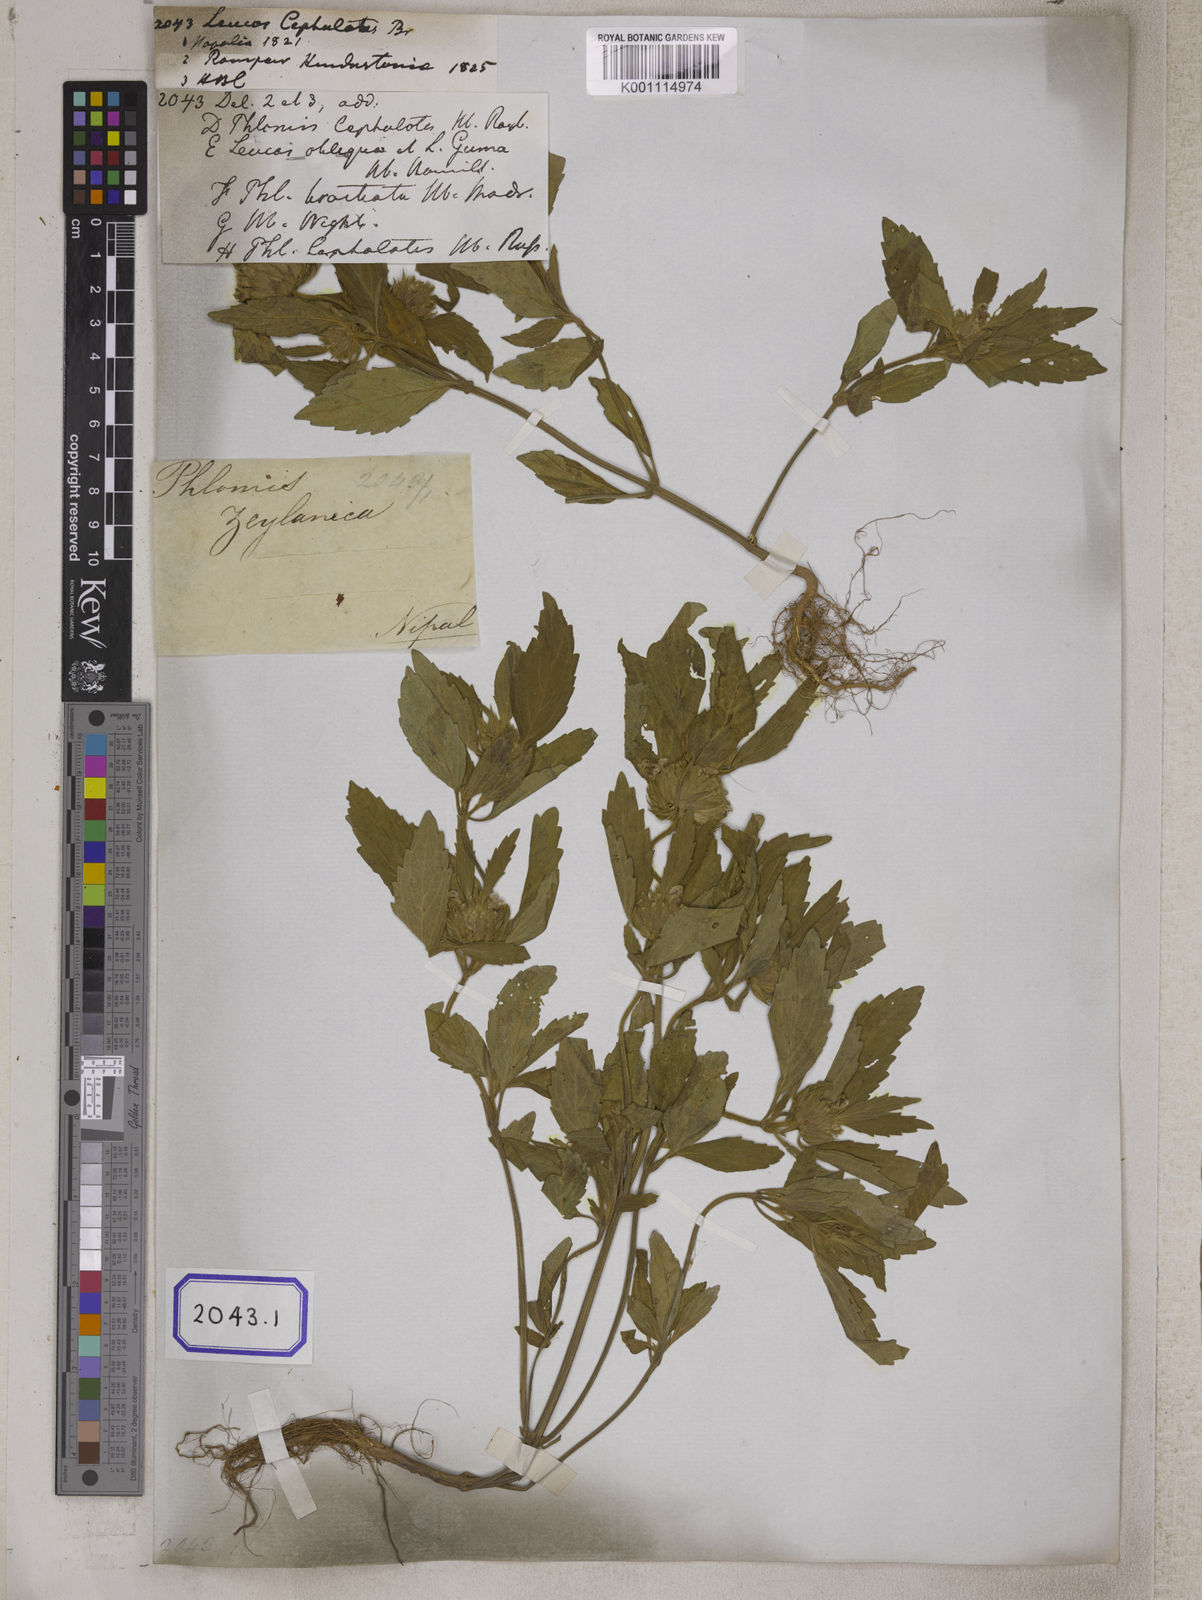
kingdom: Plantae
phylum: Tracheophyta
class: Magnoliopsida
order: Lamiales
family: Lamiaceae
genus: Leucas
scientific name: Leucas
